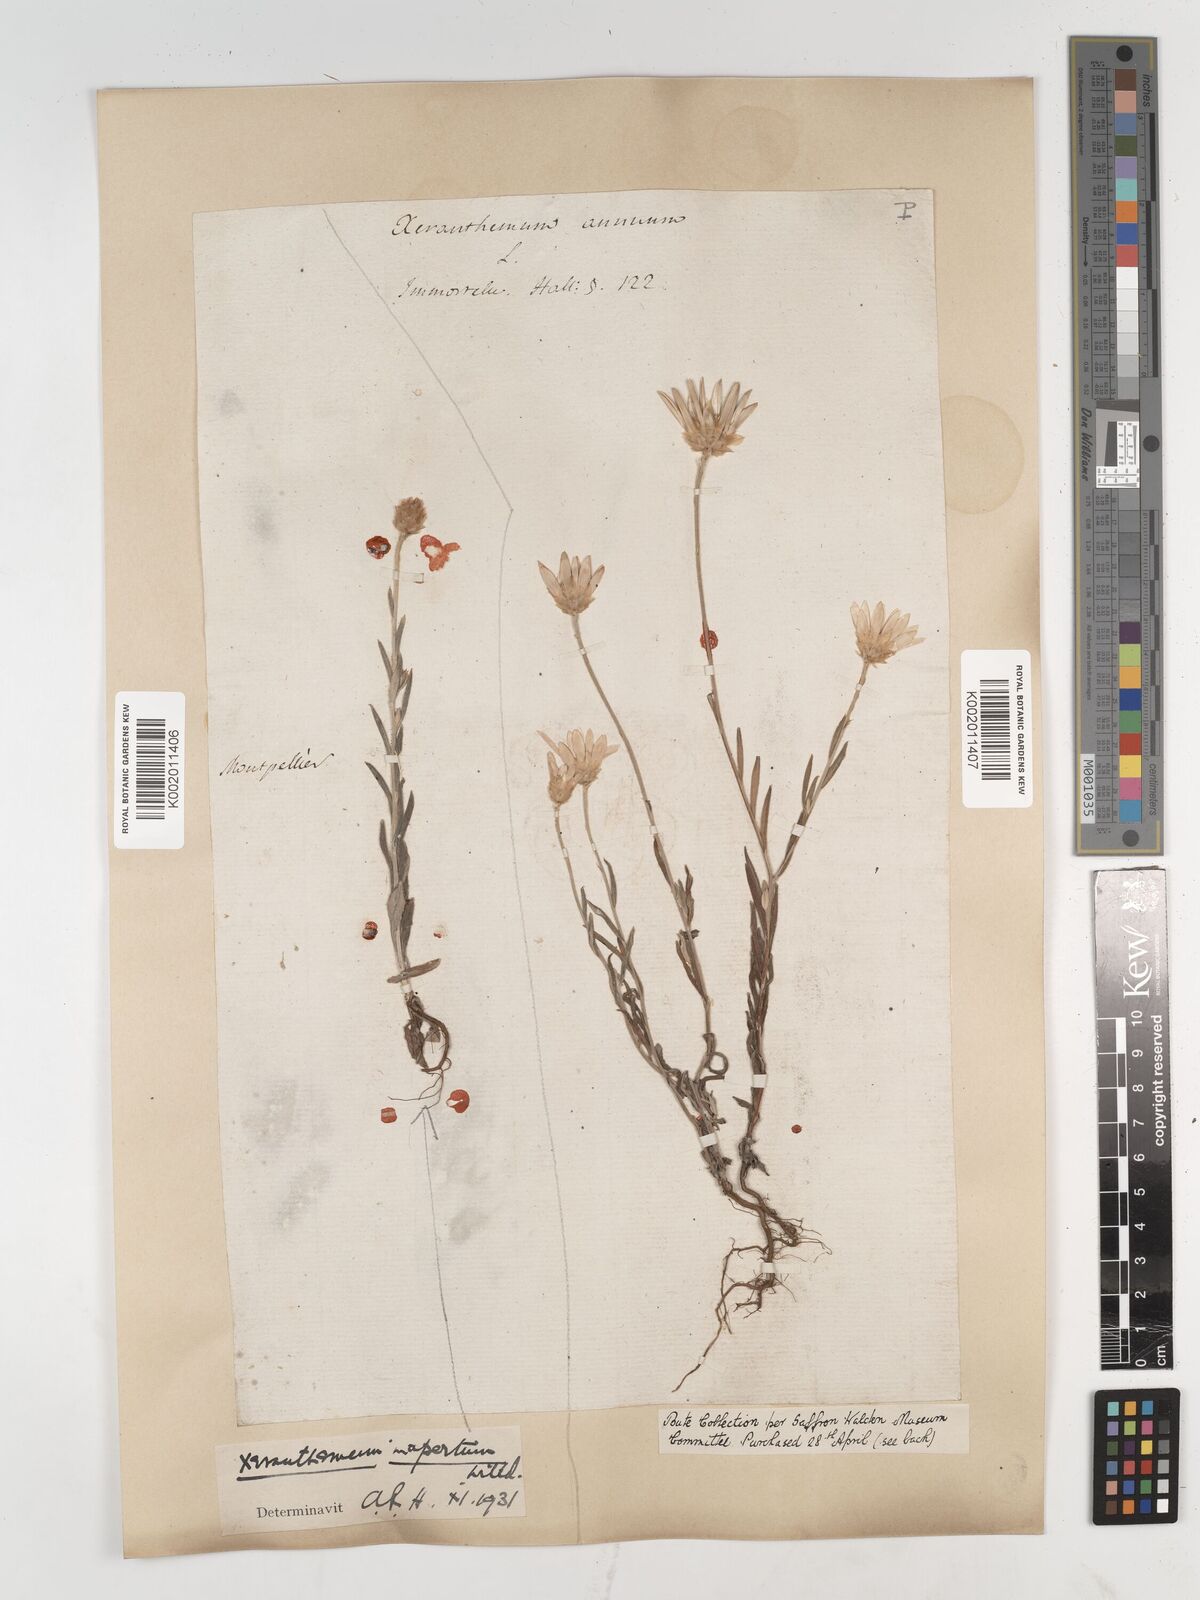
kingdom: Plantae
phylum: Tracheophyta
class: Magnoliopsida
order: Asterales
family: Asteraceae
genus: Xeranthemum
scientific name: Xeranthemum inapertum
